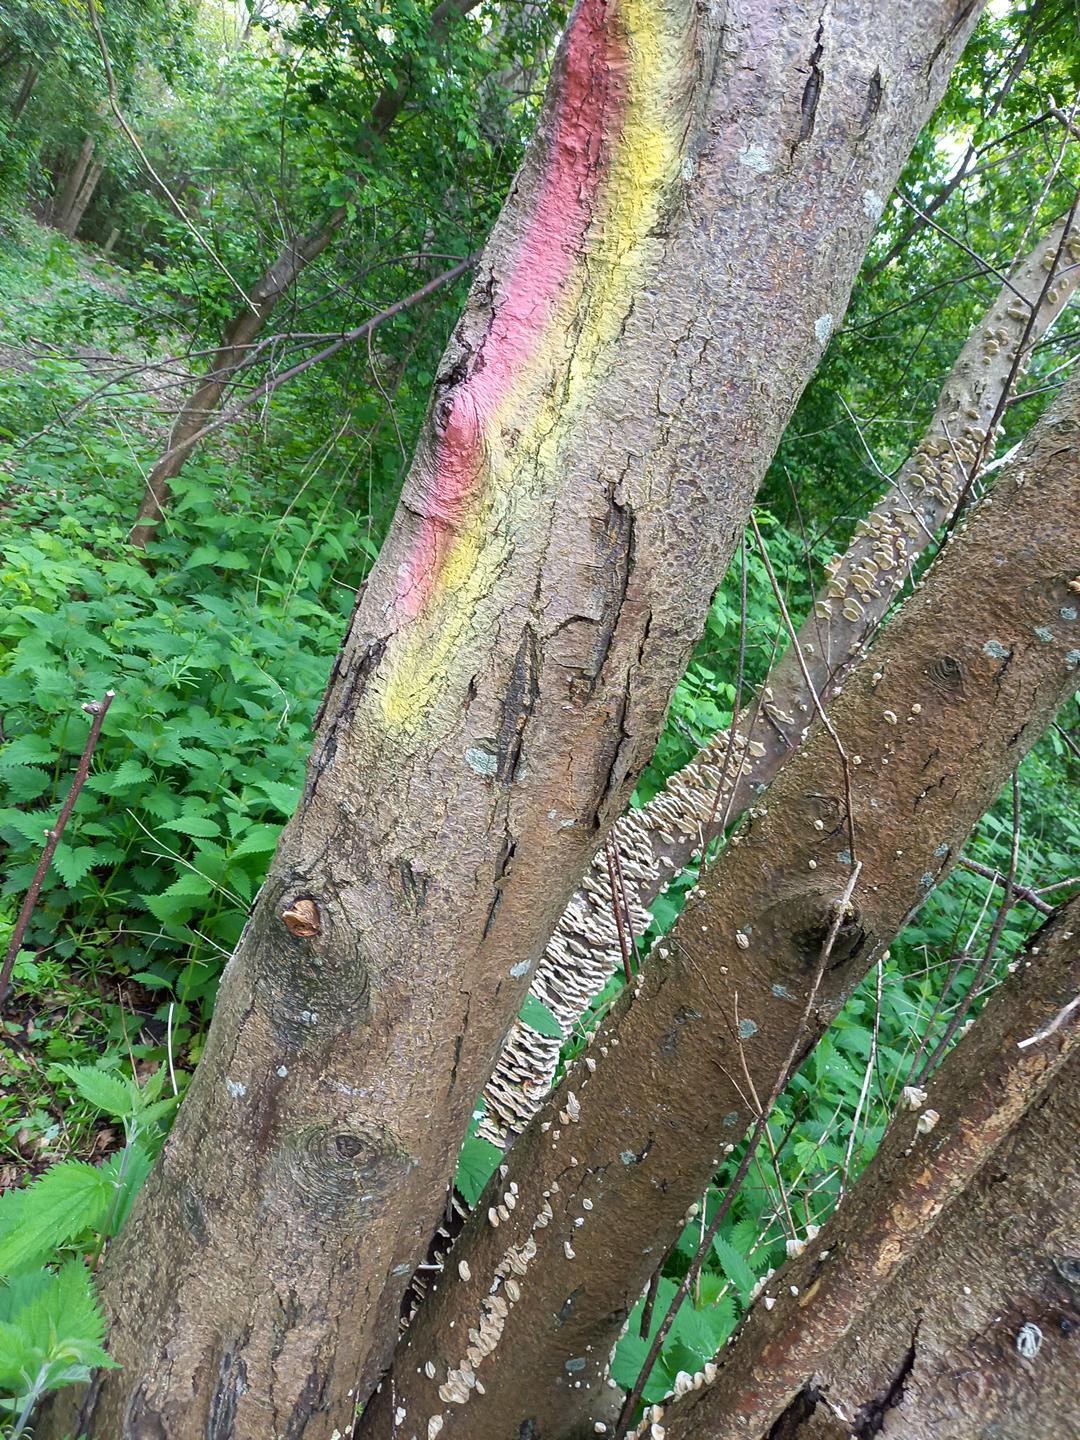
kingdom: Fungi
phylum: Basidiomycota
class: Agaricomycetes
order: Polyporales
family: Polyporaceae
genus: Trametes
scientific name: Trametes versicolor
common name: broget læderporesvamp
